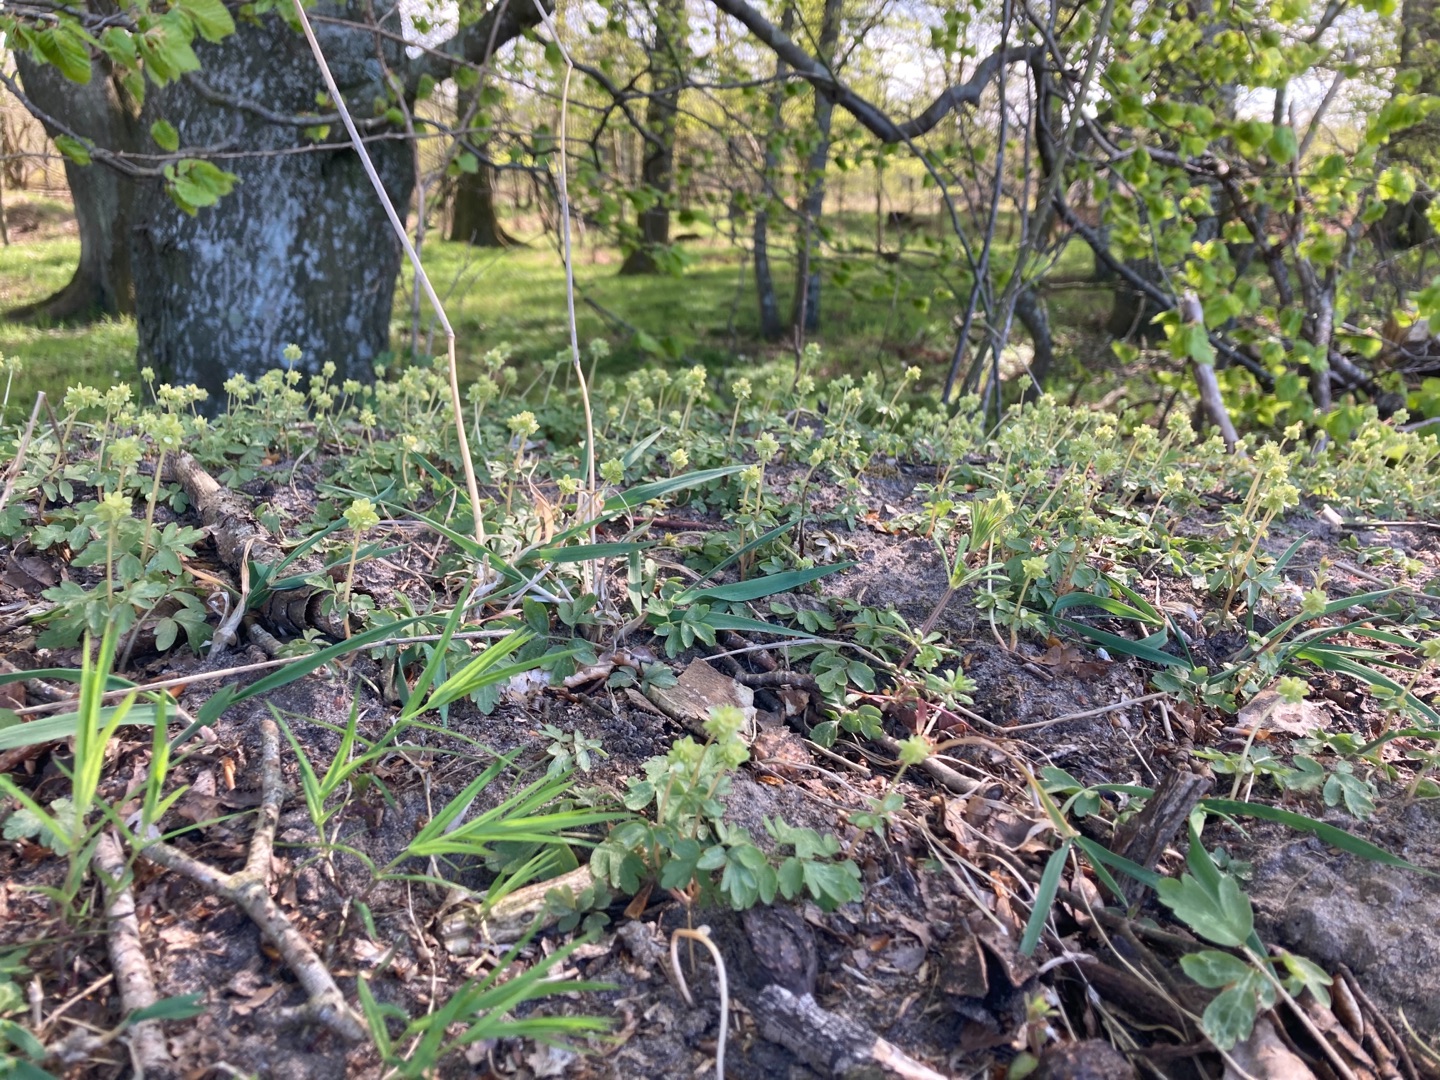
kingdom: Plantae
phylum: Tracheophyta
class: Magnoliopsida
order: Dipsacales
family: Viburnaceae
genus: Adoxa
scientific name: Adoxa moschatellina
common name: Desmerurt
